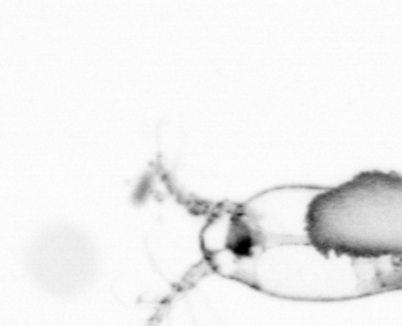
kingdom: Animalia
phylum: Arthropoda
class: Copepoda
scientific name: Copepoda
